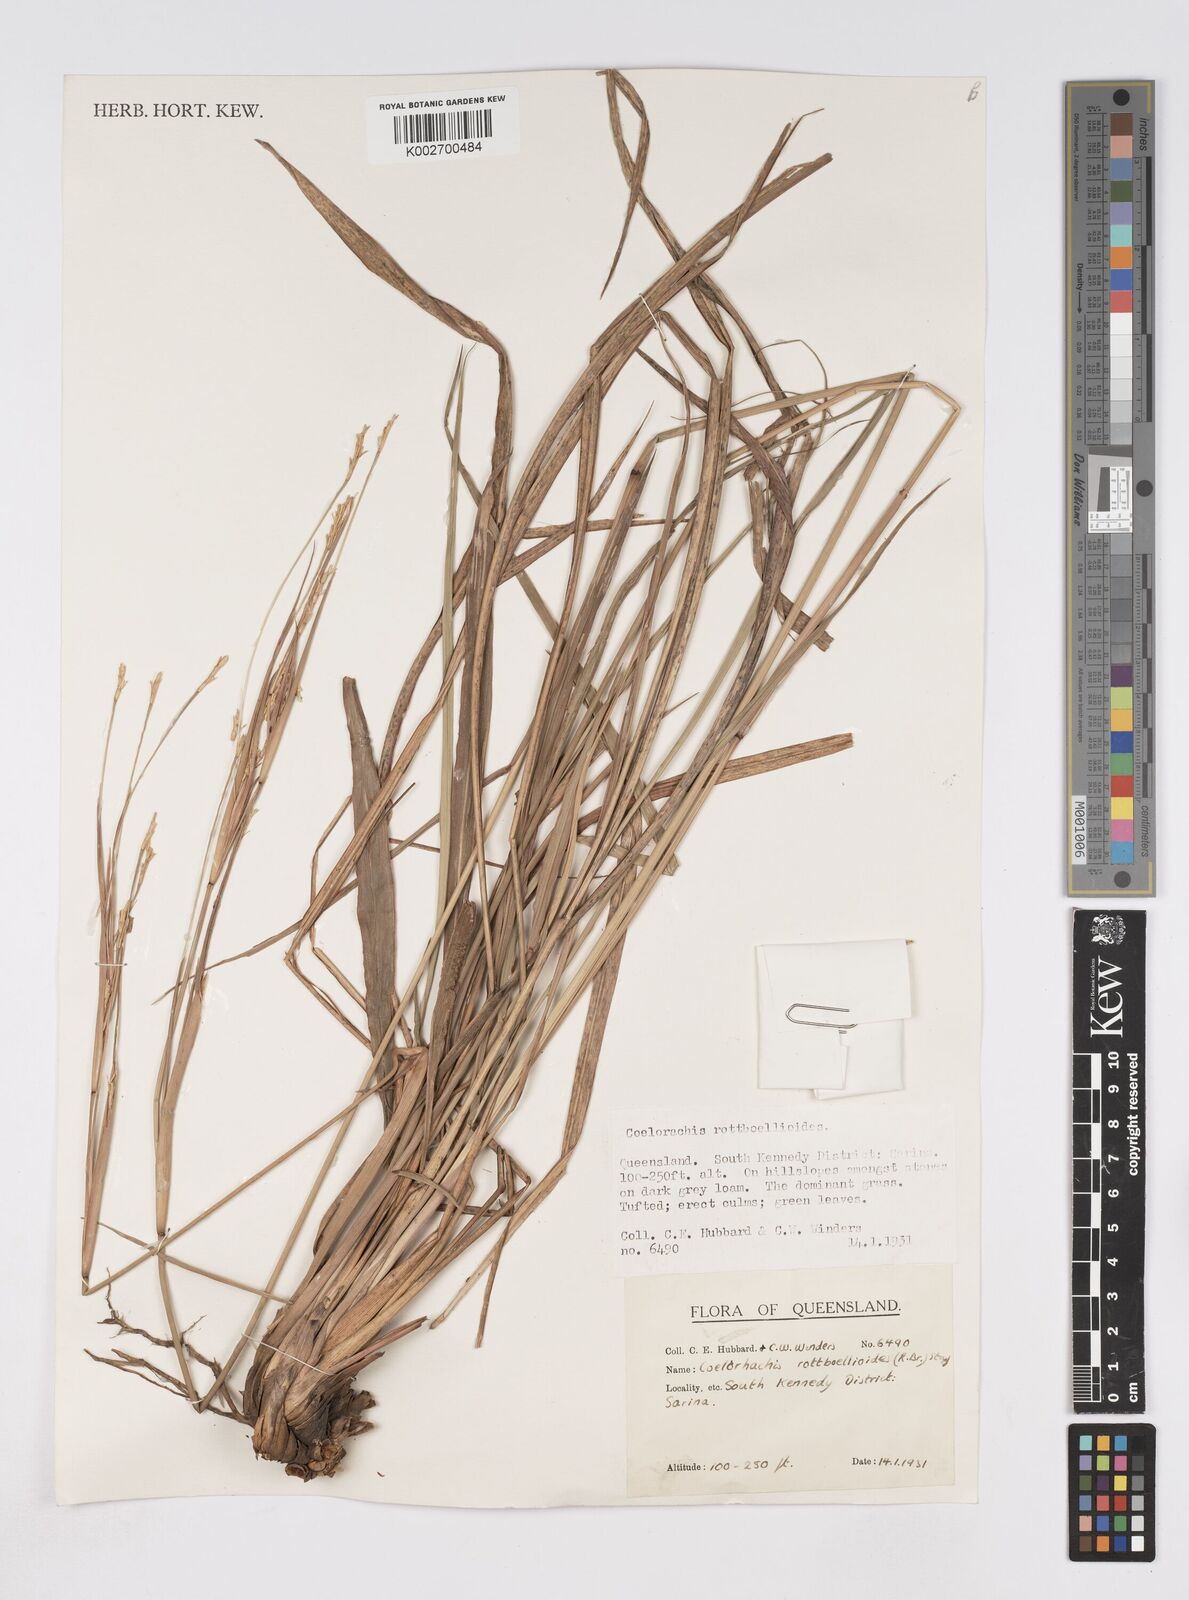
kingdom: Plantae
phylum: Tracheophyta
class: Liliopsida
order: Poales
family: Poaceae
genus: Rottboellia
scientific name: Rottboellia rottboellioides
